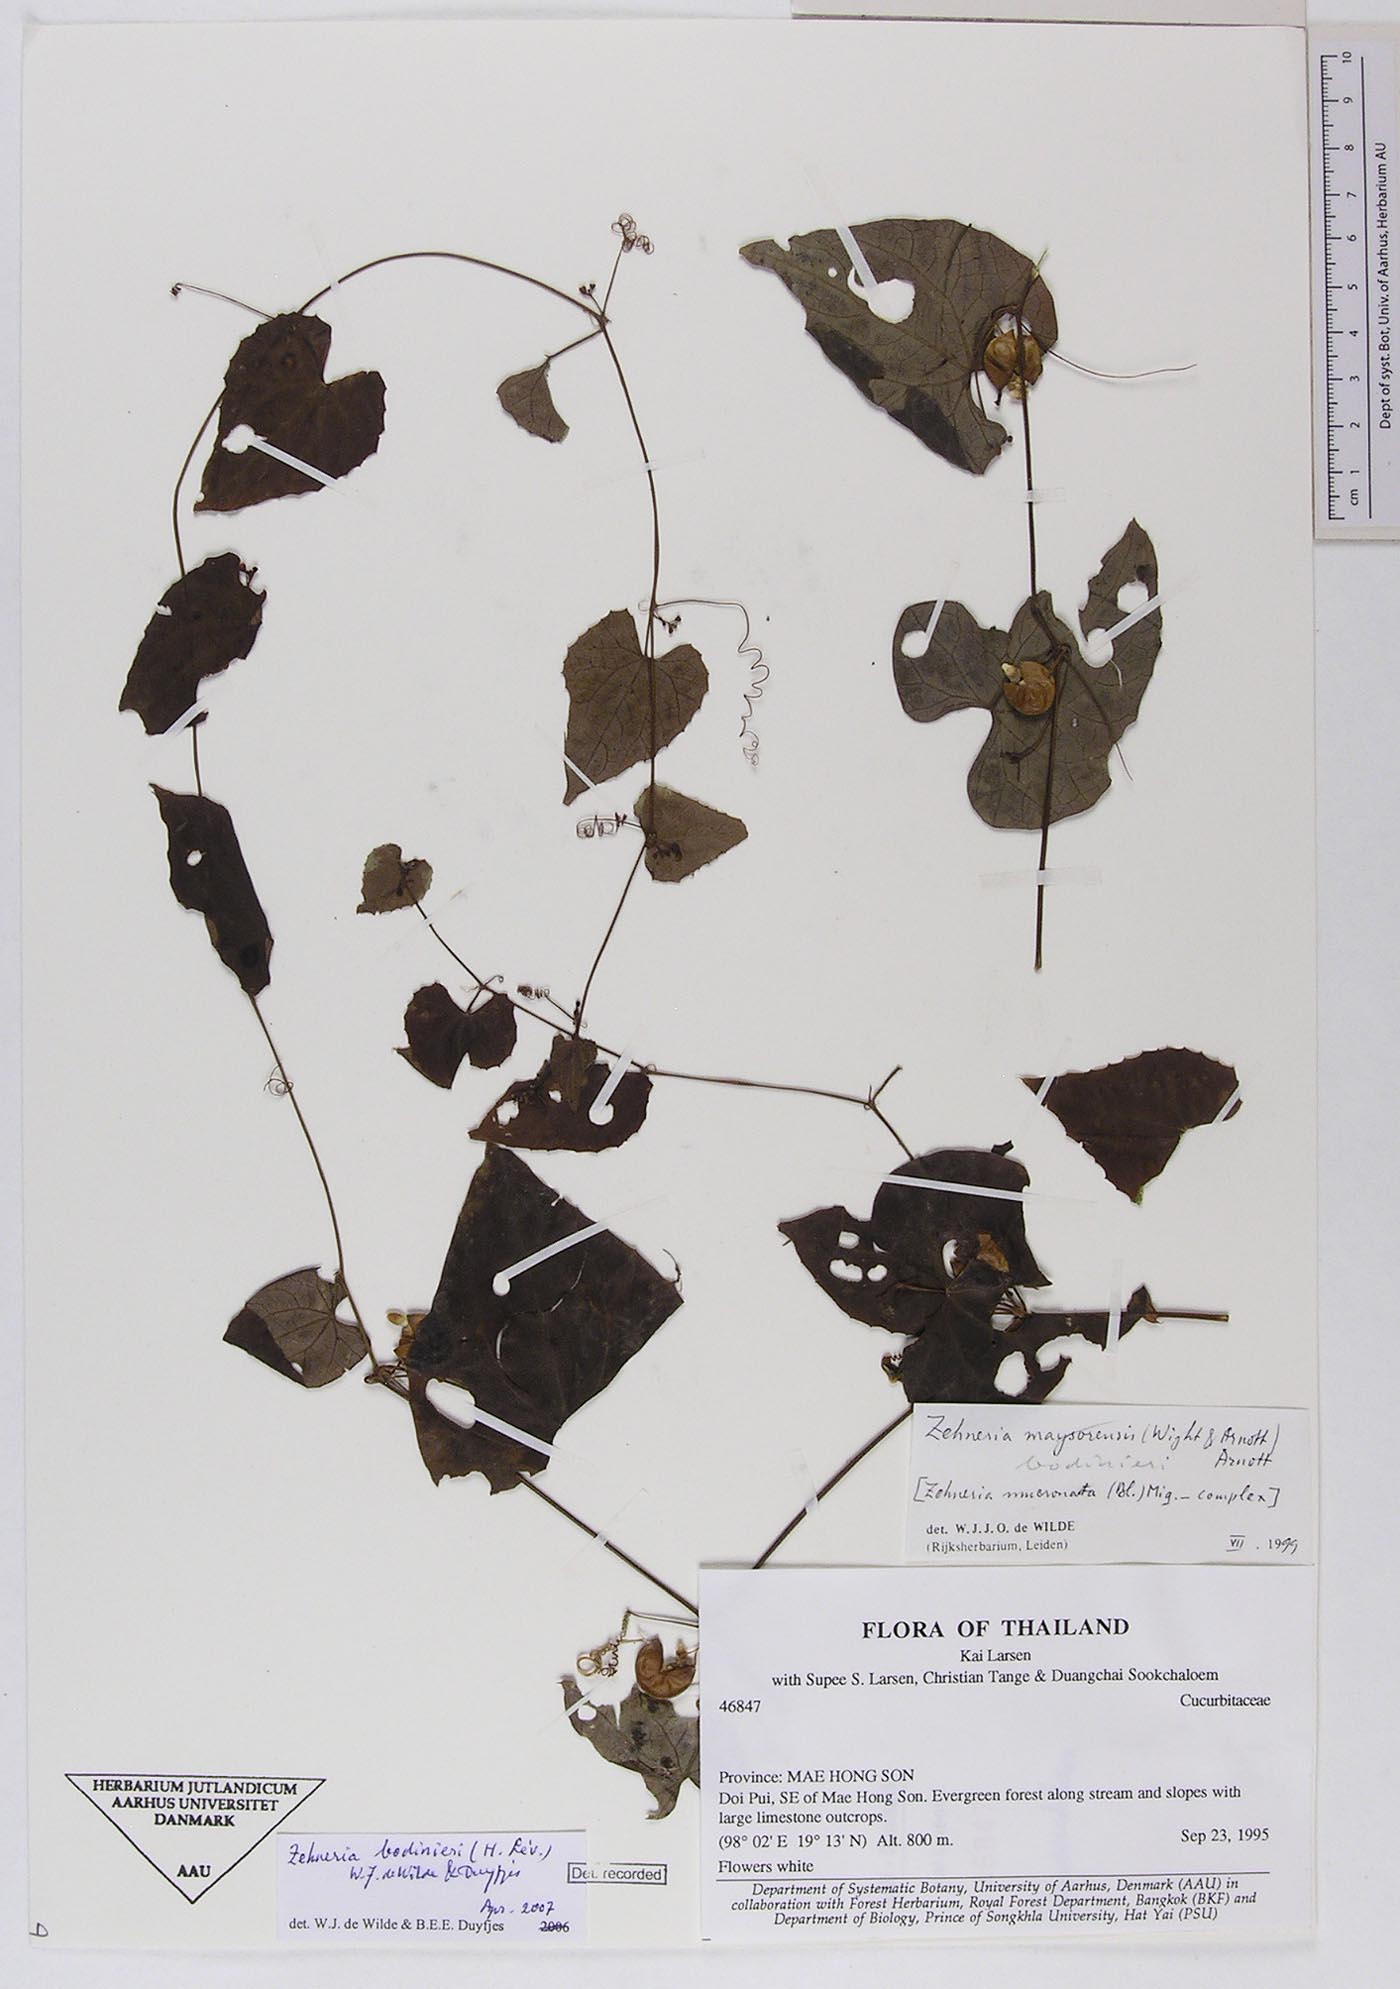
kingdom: Plantae
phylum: Tracheophyta
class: Magnoliopsida
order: Cucurbitales
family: Cucurbitaceae
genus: Zehneria
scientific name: Zehneria bodinieri
